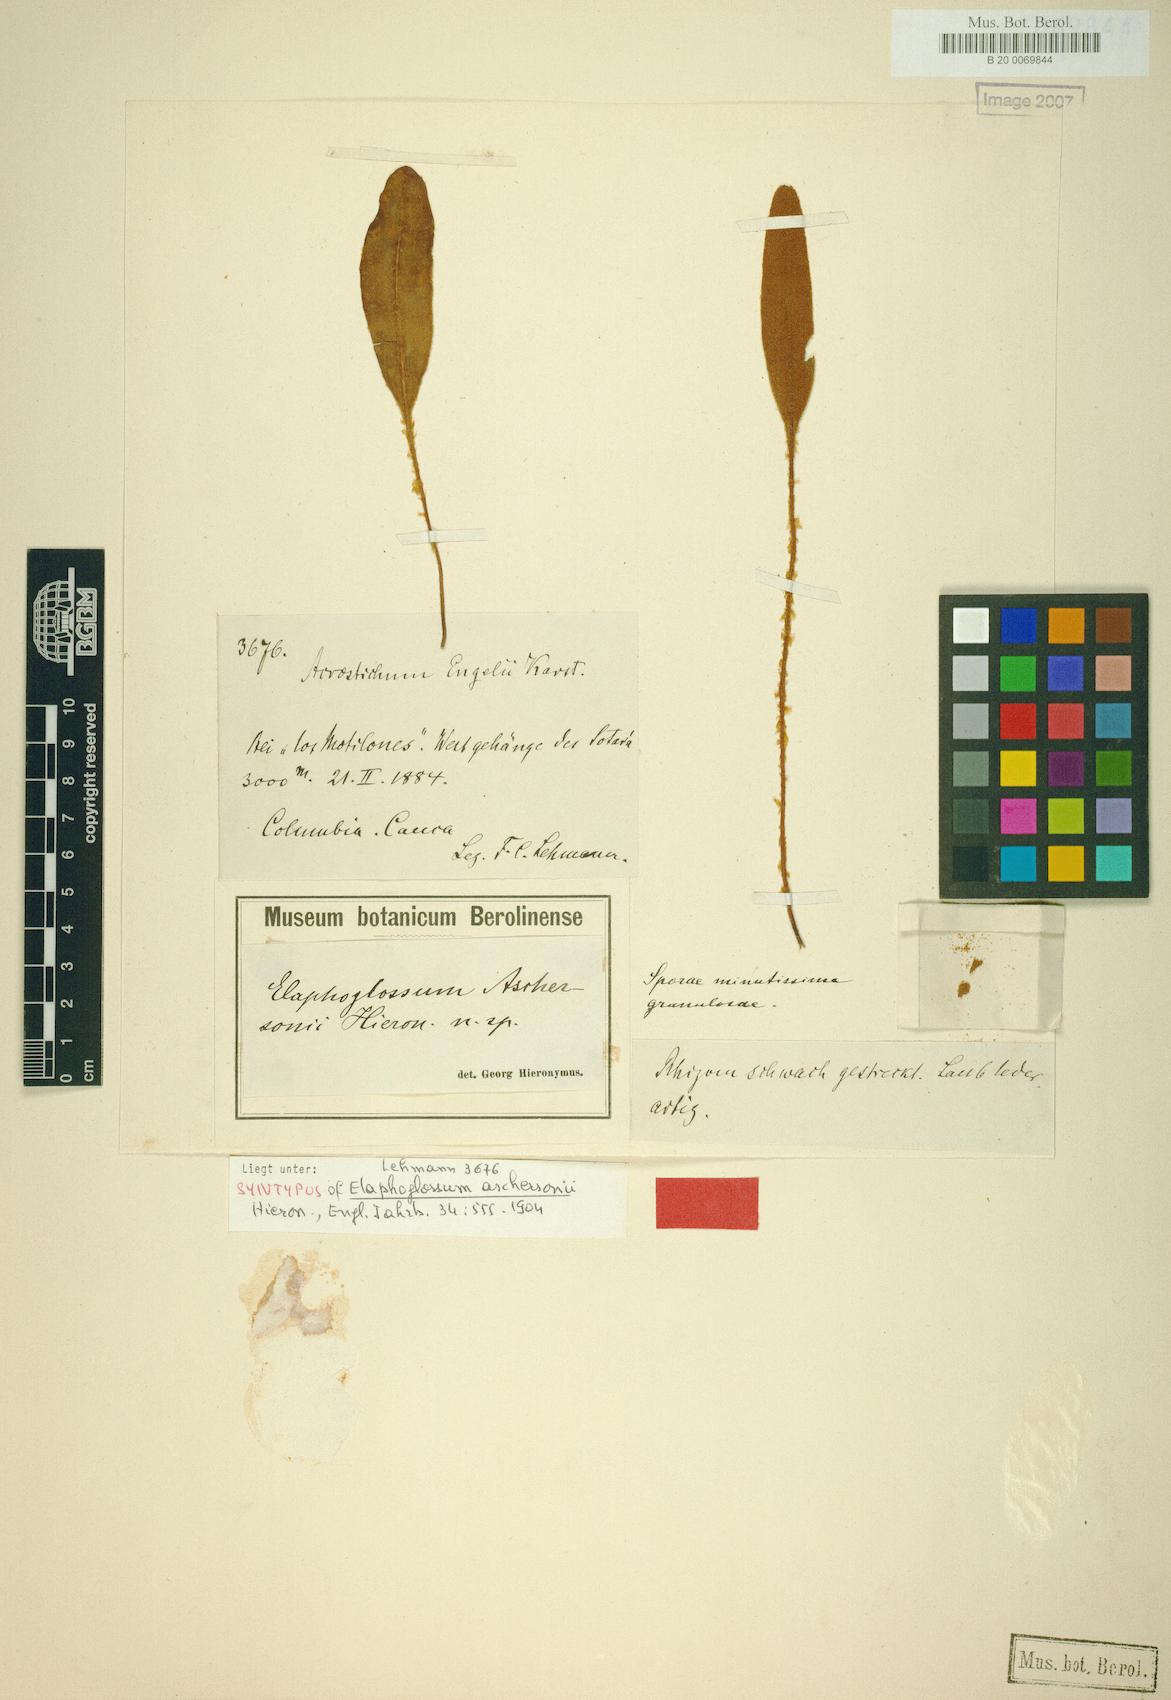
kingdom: Plantae
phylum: Tracheophyta
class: Polypodiopsida
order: Polypodiales
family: Dryopteridaceae
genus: Elaphoglossum
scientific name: Elaphoglossum aschersonii
